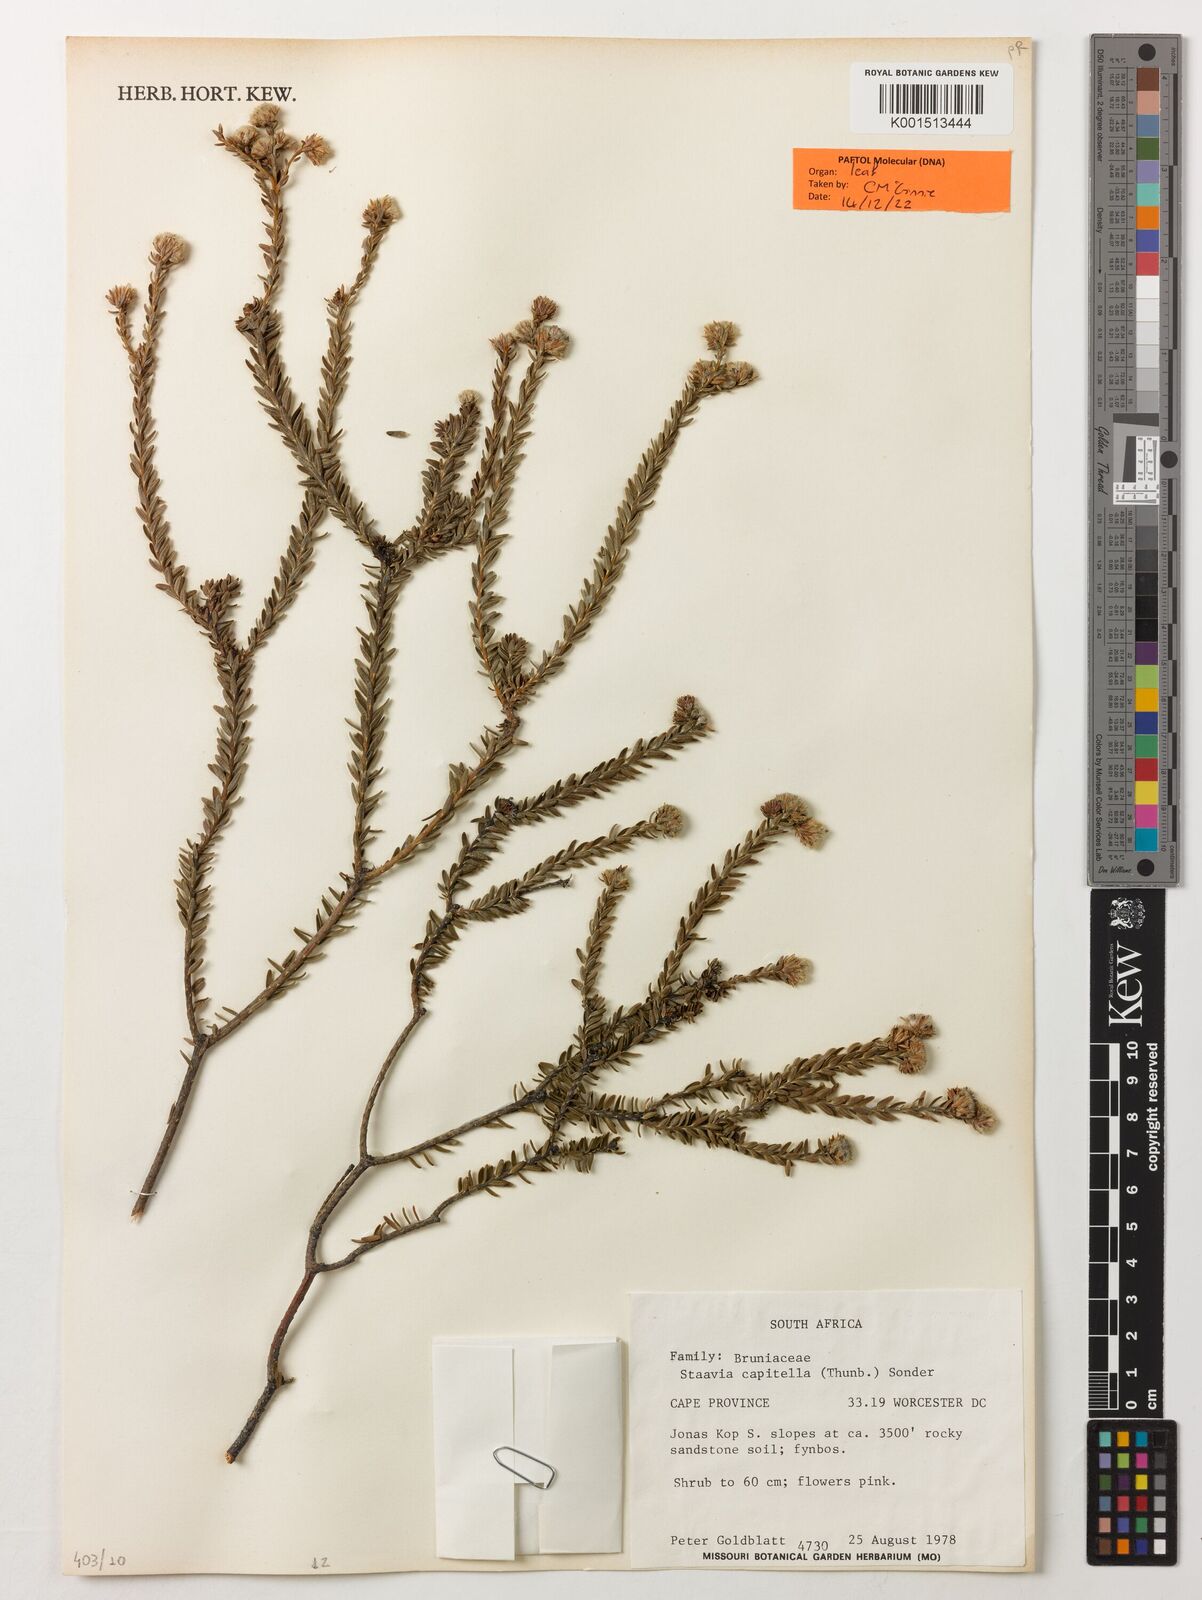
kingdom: Plantae
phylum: Tracheophyta
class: Magnoliopsida
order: Bruniales
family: Bruniaceae
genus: Staavia
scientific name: Staavia capitella
